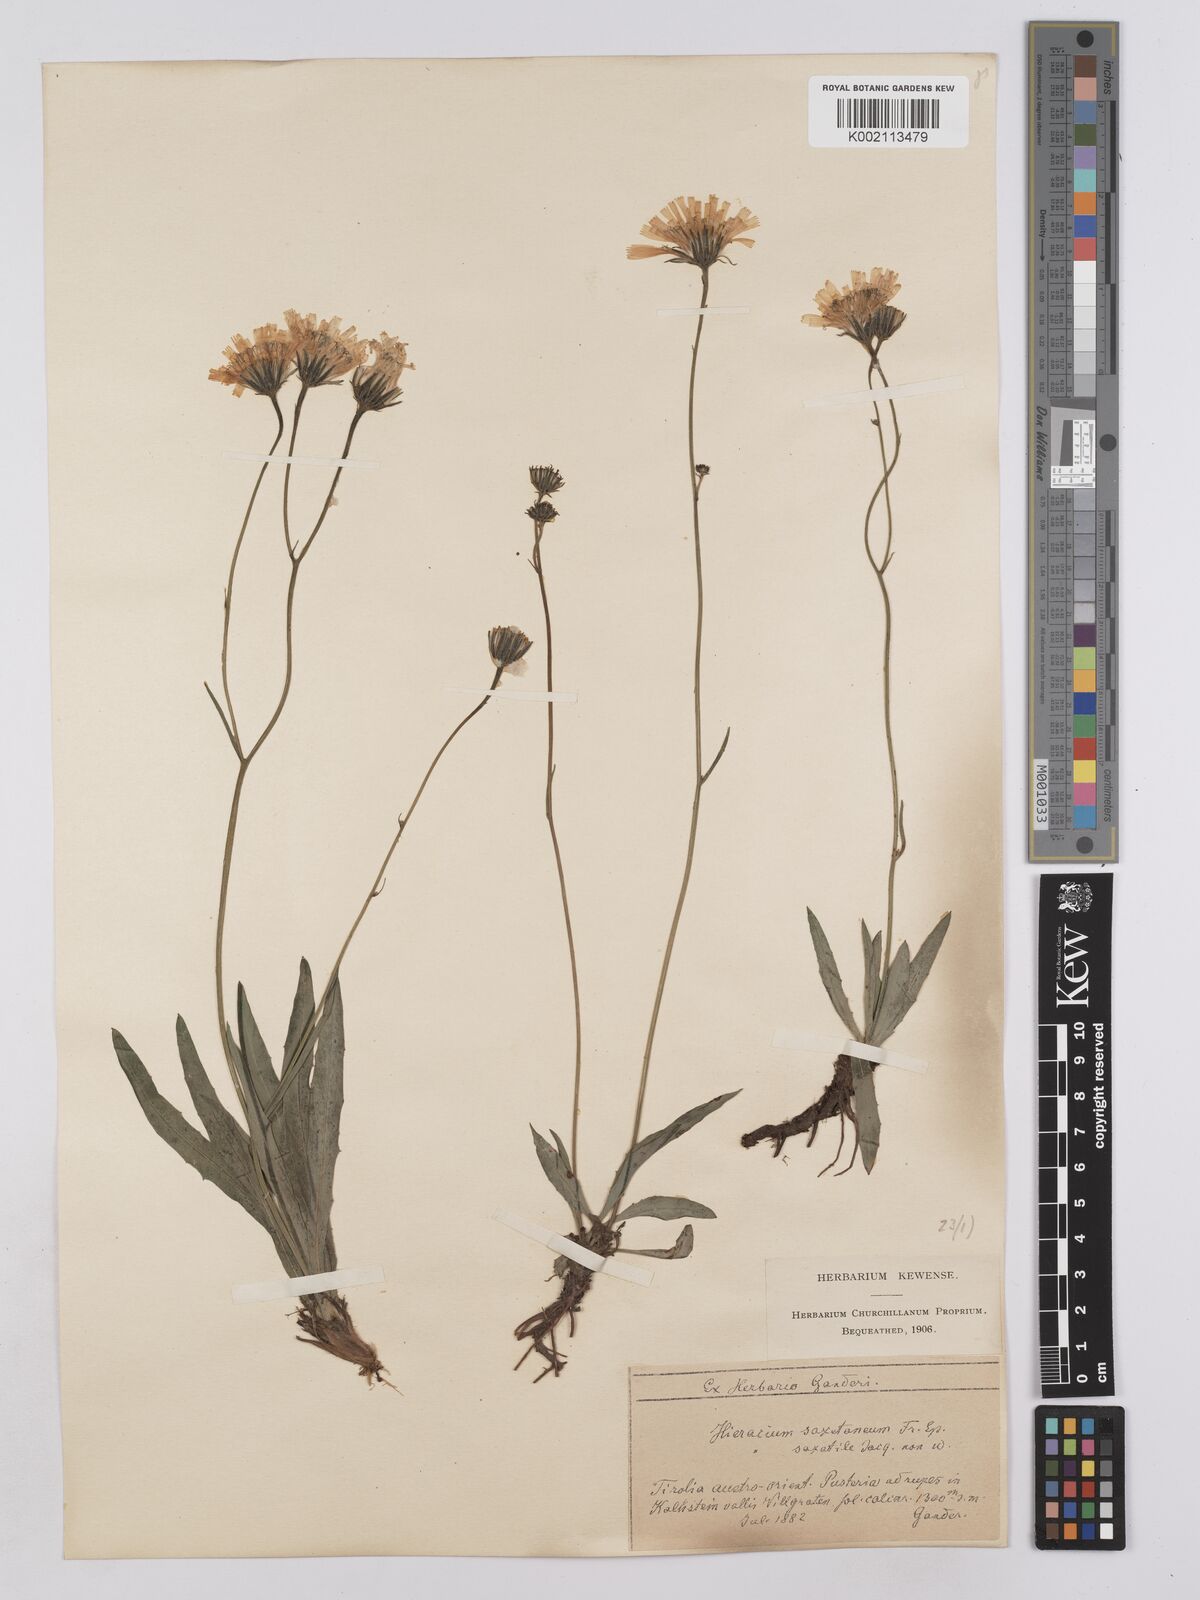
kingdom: Plantae
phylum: Tracheophyta
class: Magnoliopsida
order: Asterales
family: Asteraceae
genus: Hieracium
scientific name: Hieracium saxatile
